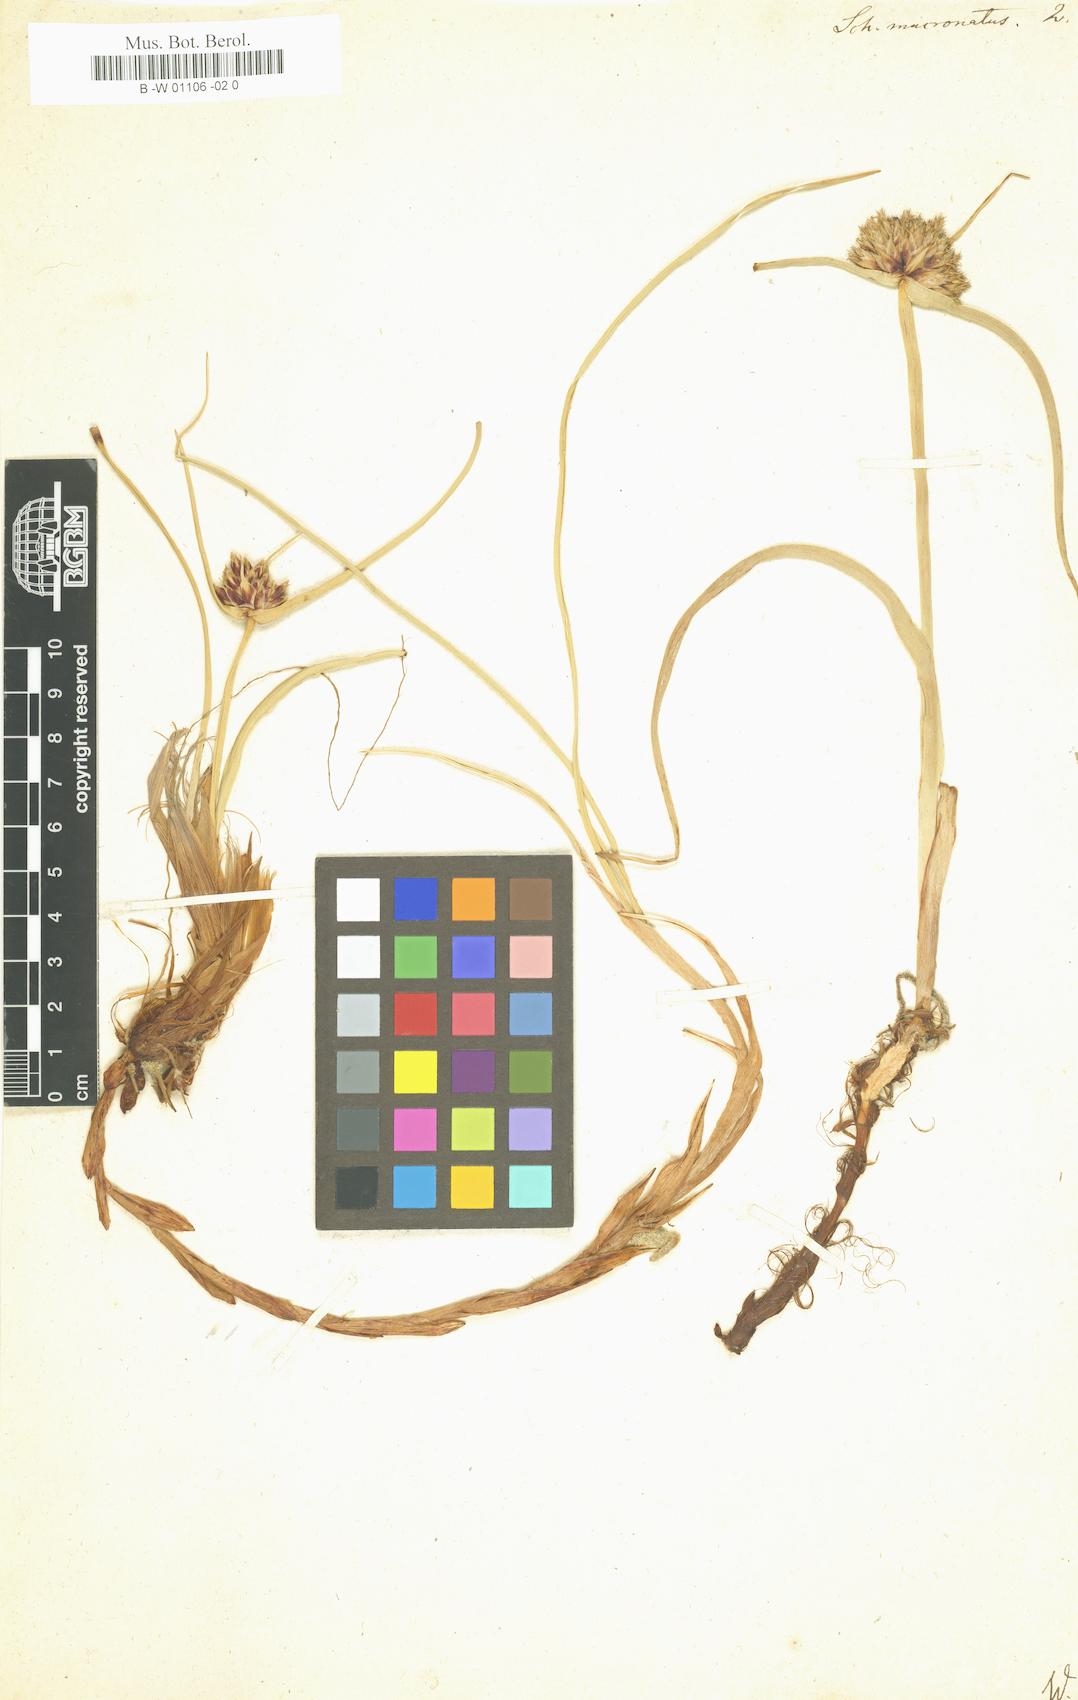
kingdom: Plantae
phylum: Tracheophyta
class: Liliopsida
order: Poales
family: Cyperaceae
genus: Cyperus
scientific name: Cyperus capitatus
